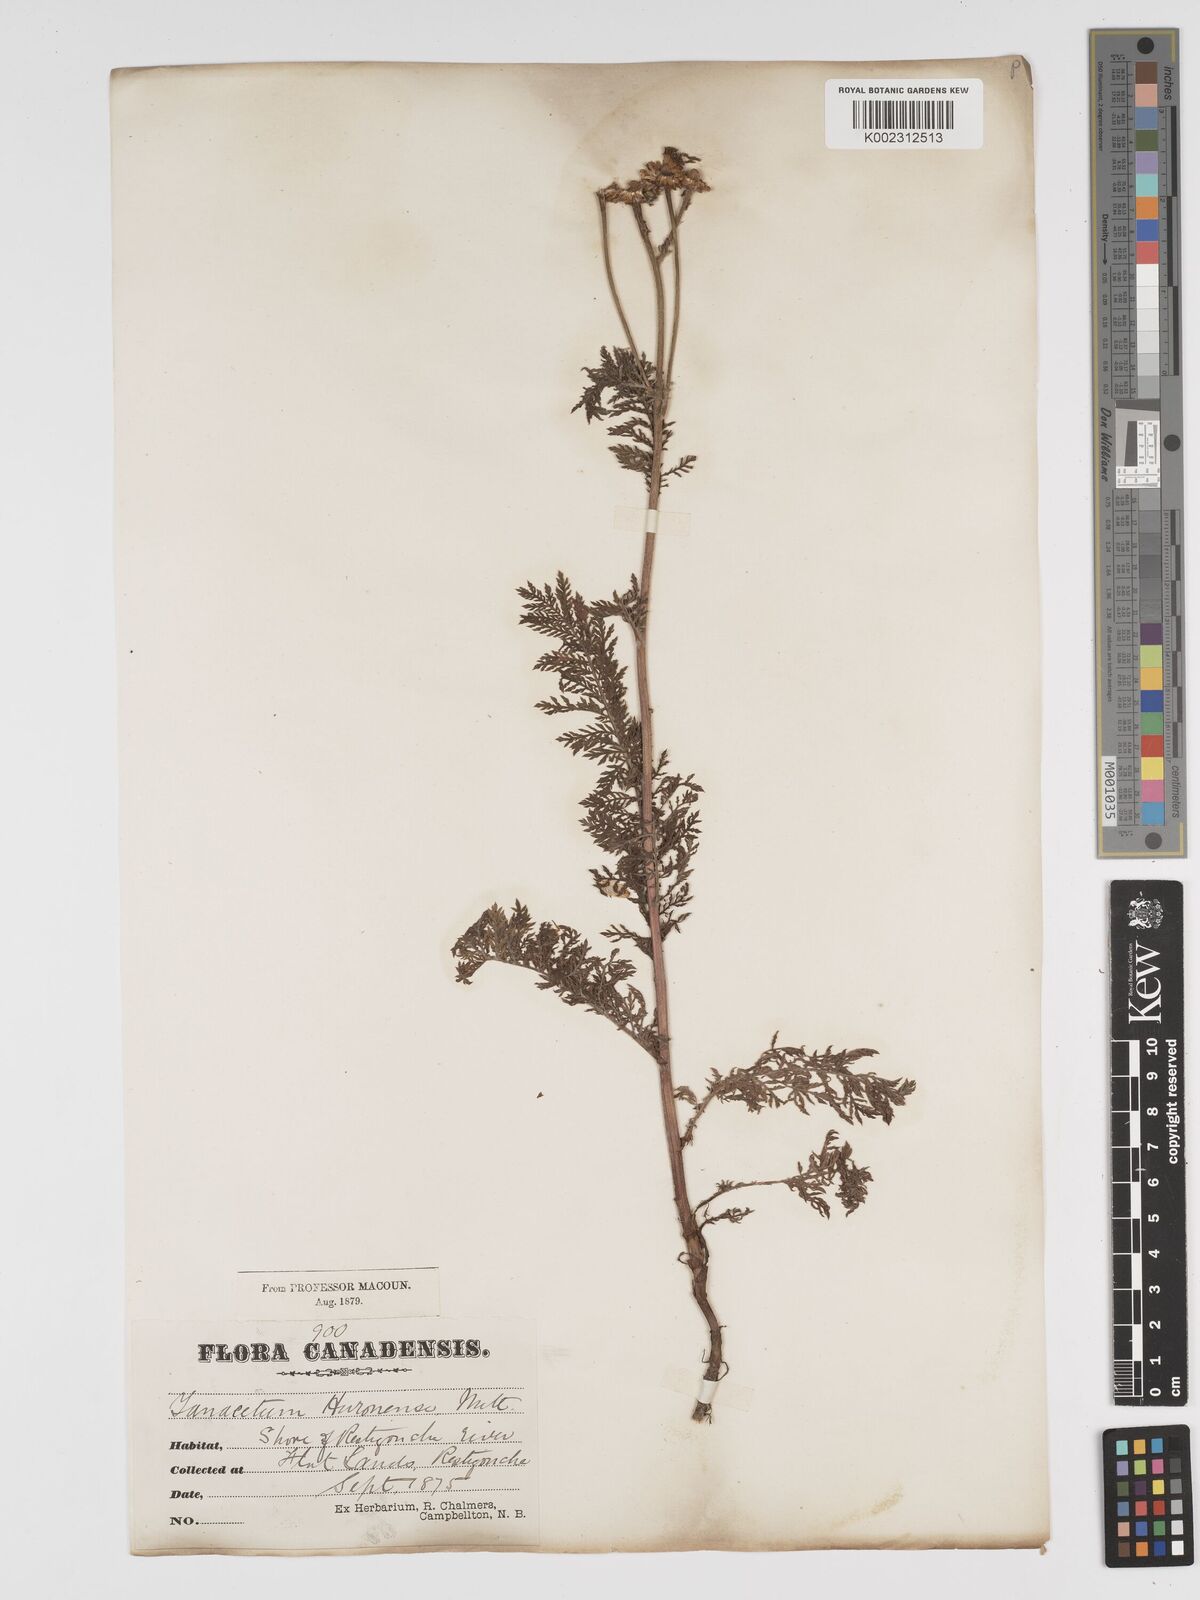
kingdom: Plantae
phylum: Tracheophyta
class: Magnoliopsida
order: Asterales
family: Asteraceae
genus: Tanacetum
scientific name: Tanacetum bipinnatum
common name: Dwarf tansy
